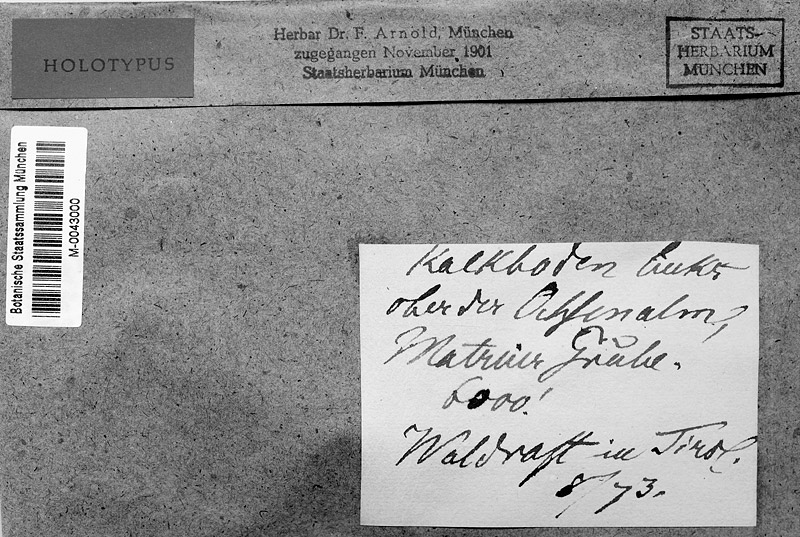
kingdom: Fungi
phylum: Ascomycota
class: Dothideomycetes
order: Pleosporales
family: Phaeosphaeriaceae
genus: Didymocyrtis
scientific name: Didymocyrtis bryonthae
